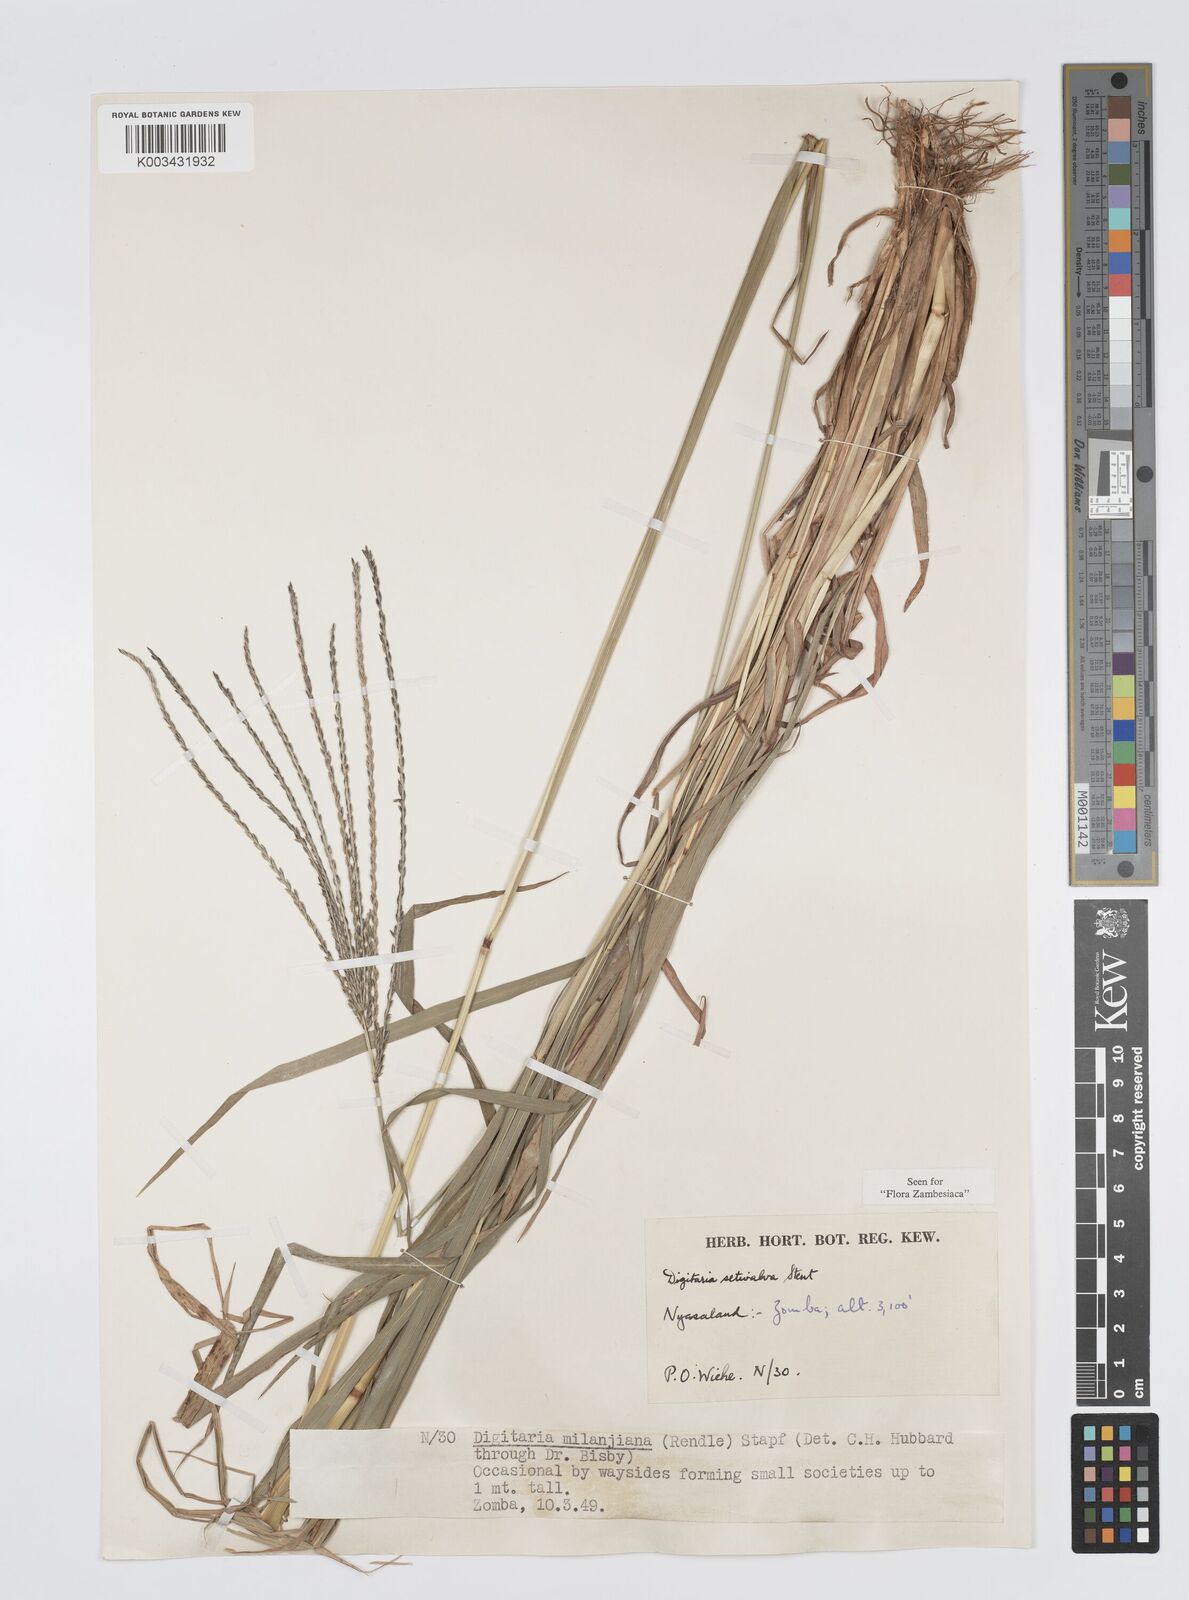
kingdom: Plantae
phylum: Tracheophyta
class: Liliopsida
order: Poales
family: Poaceae
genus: Digitaria
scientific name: Digitaria milanjiana
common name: Madagascar crabgrass
